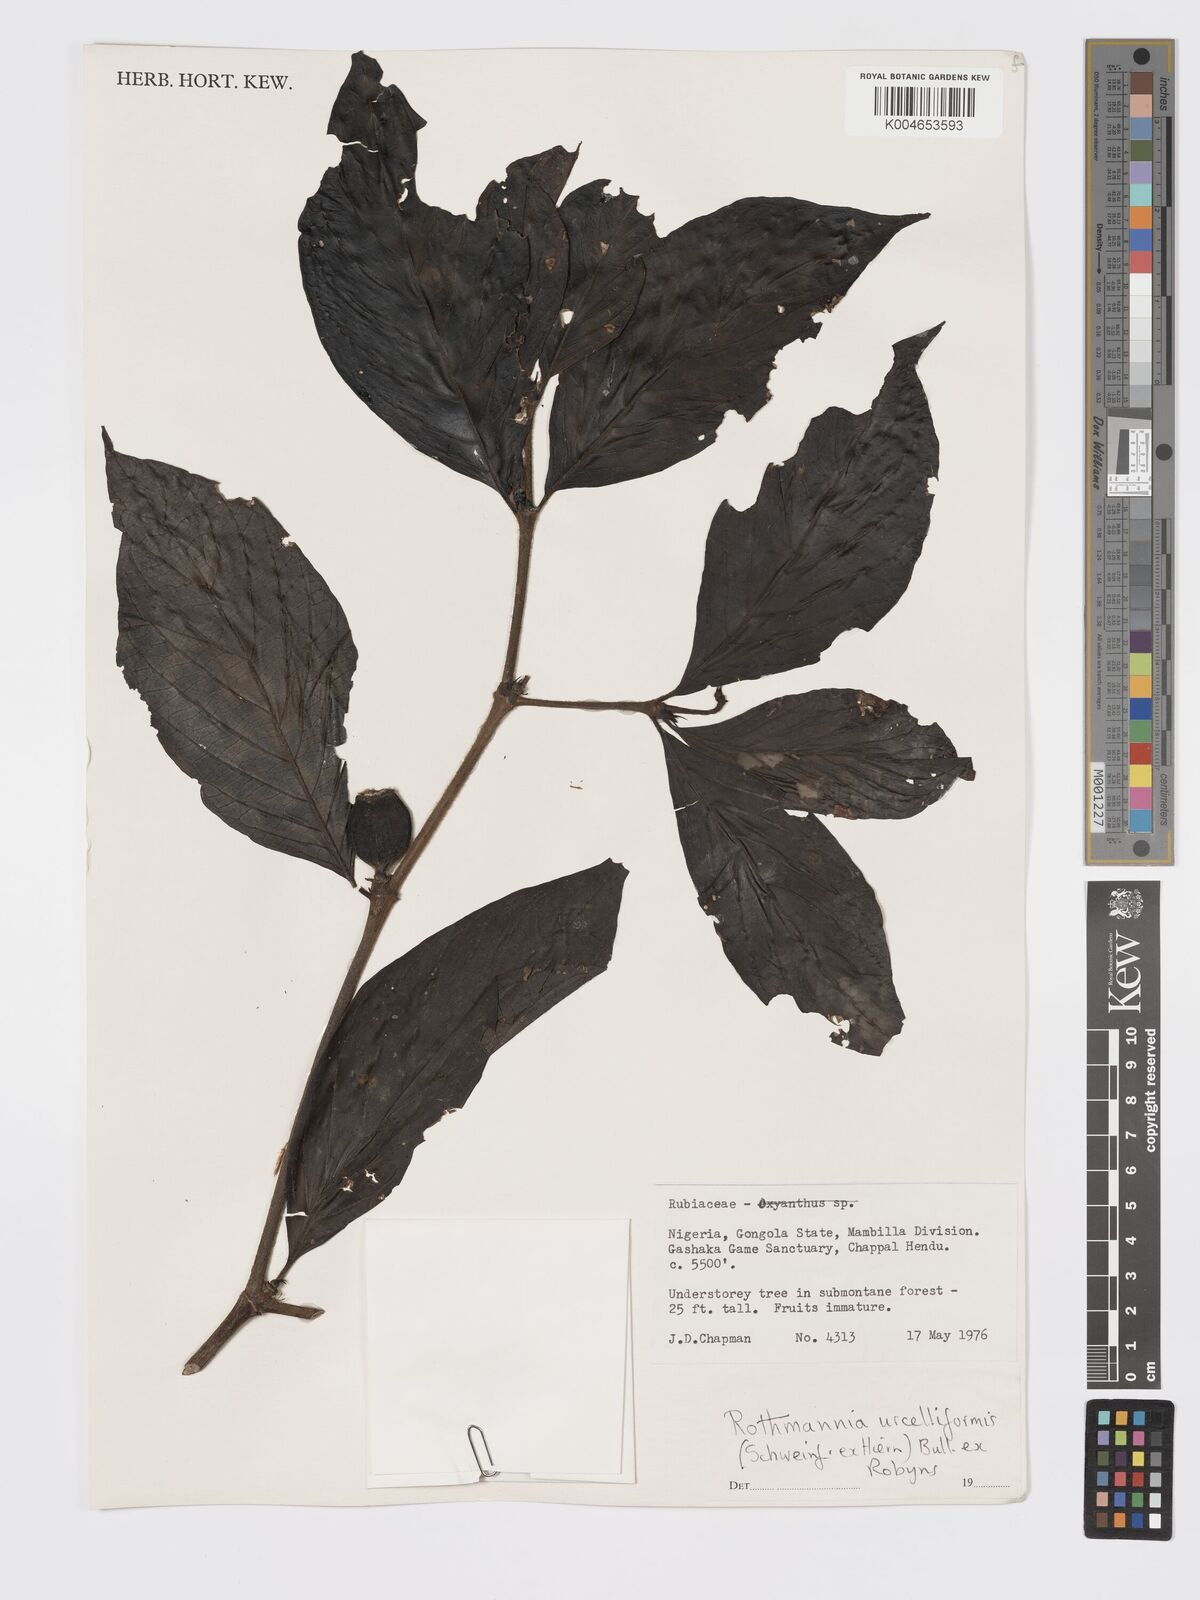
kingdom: Plantae
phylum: Tracheophyta
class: Magnoliopsida
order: Gentianales
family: Rubiaceae
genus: Rothmannia
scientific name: Rothmannia urcelliformis
